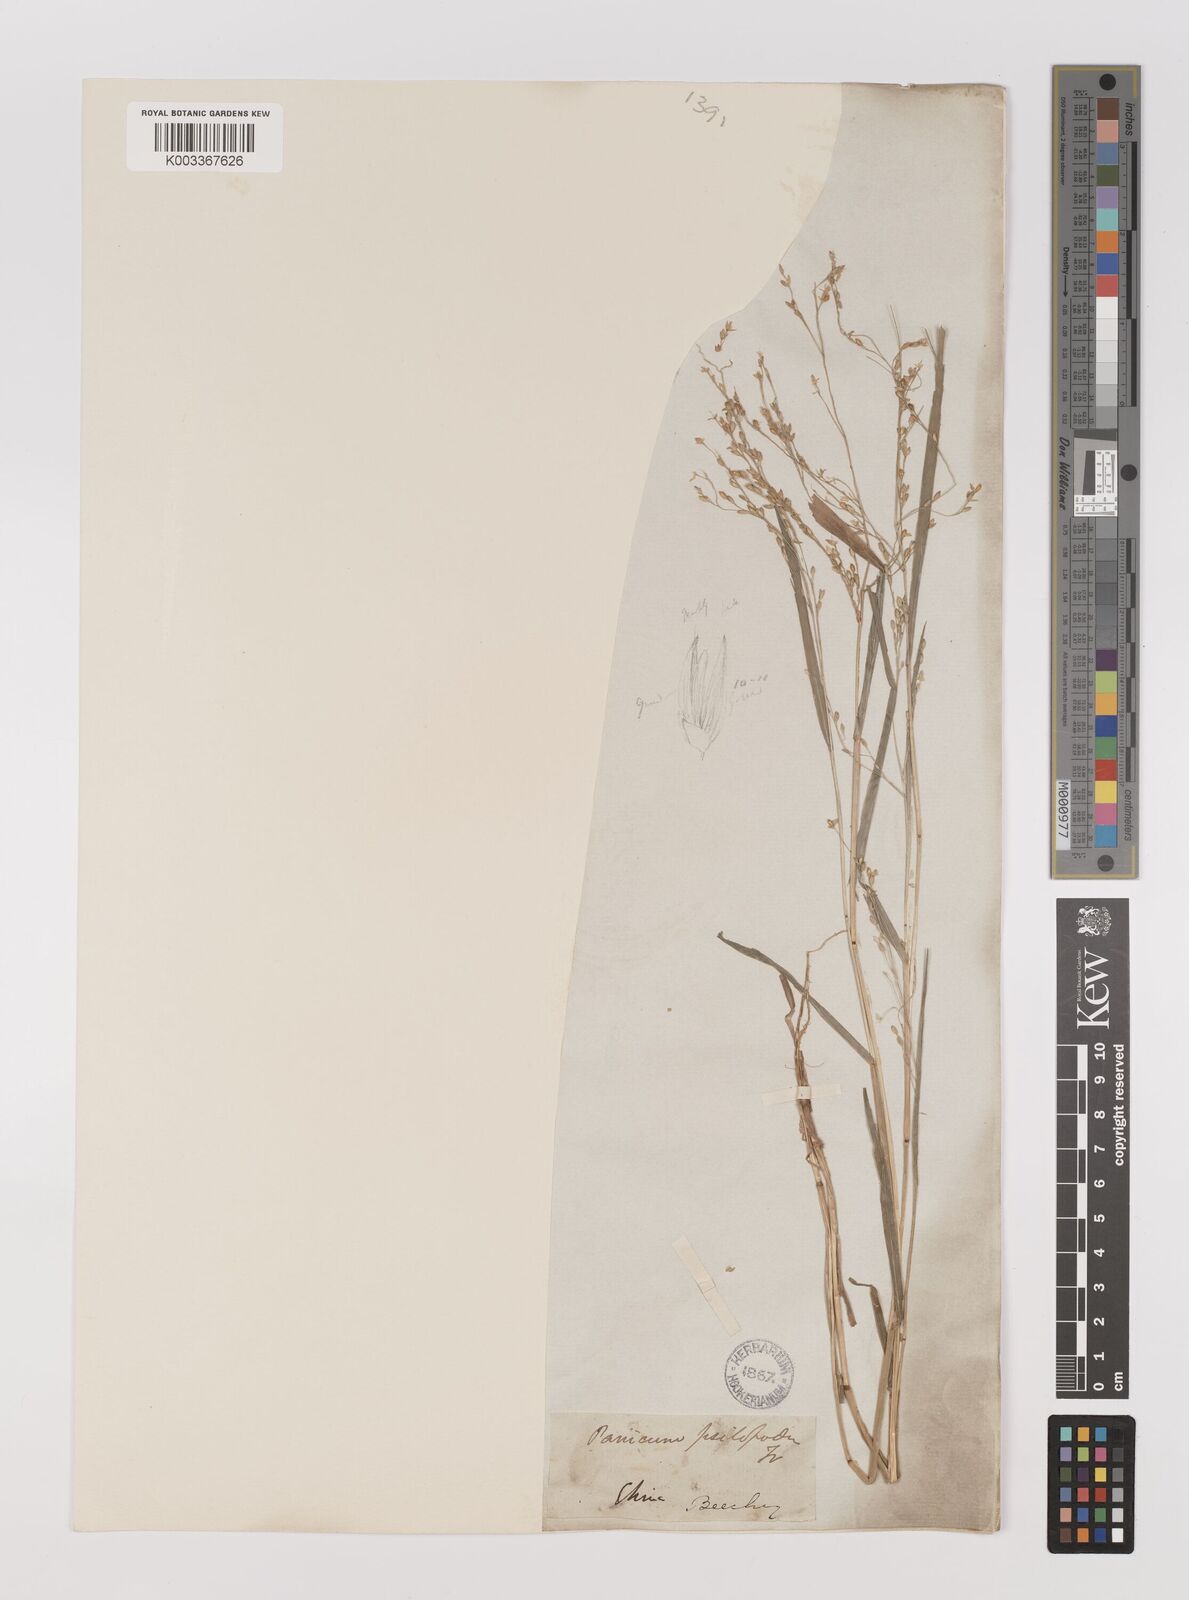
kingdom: Plantae
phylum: Tracheophyta
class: Liliopsida
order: Poales
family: Poaceae
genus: Panicum
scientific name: Panicum sumatrense
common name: Little millet
